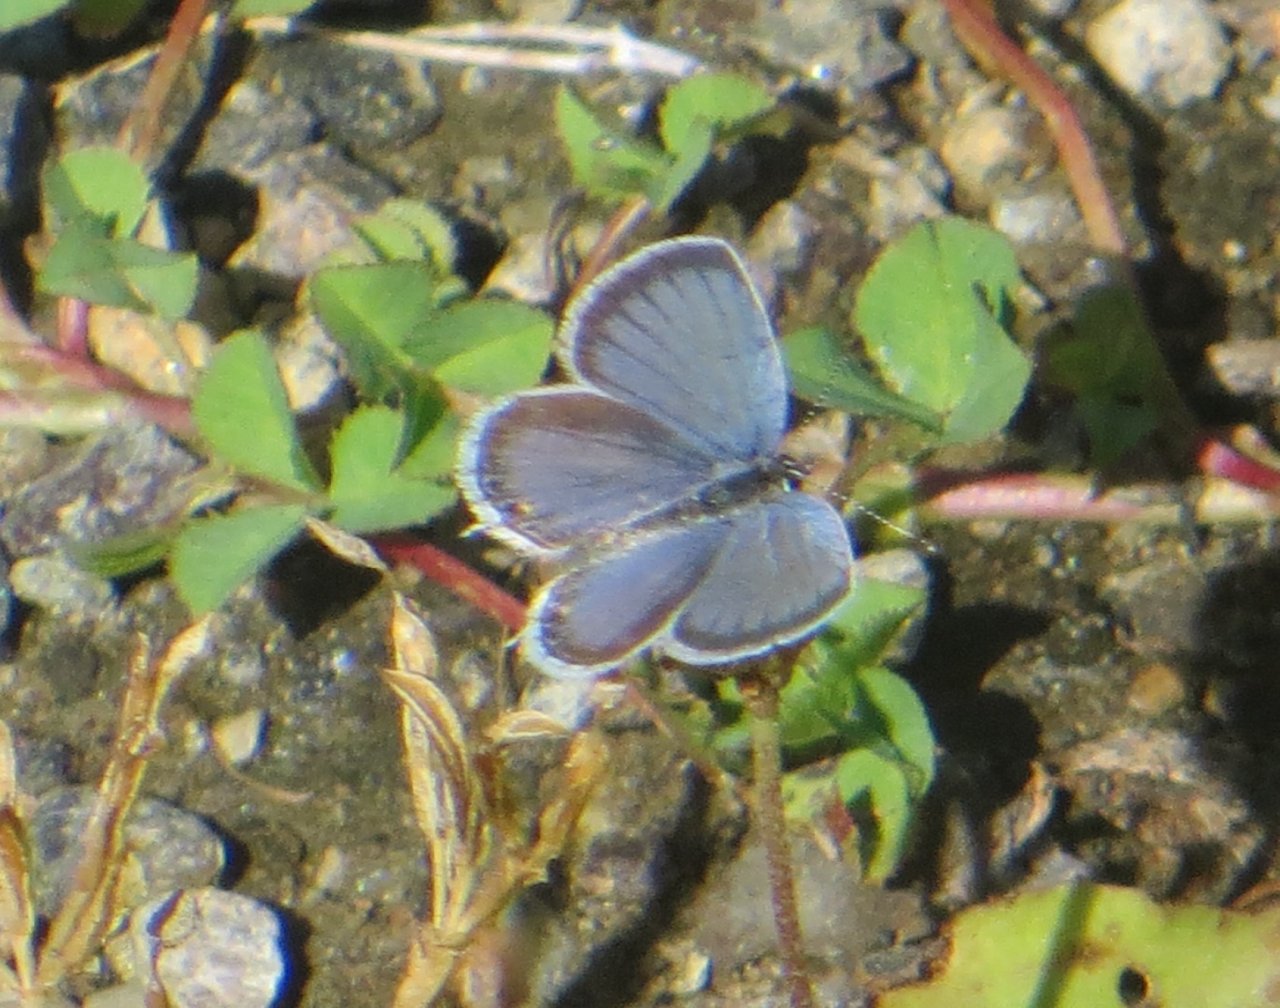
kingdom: Animalia
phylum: Arthropoda
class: Insecta
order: Lepidoptera
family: Lycaenidae
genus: Elkalyce
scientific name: Elkalyce comyntas
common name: Eastern Tailed-Blue
